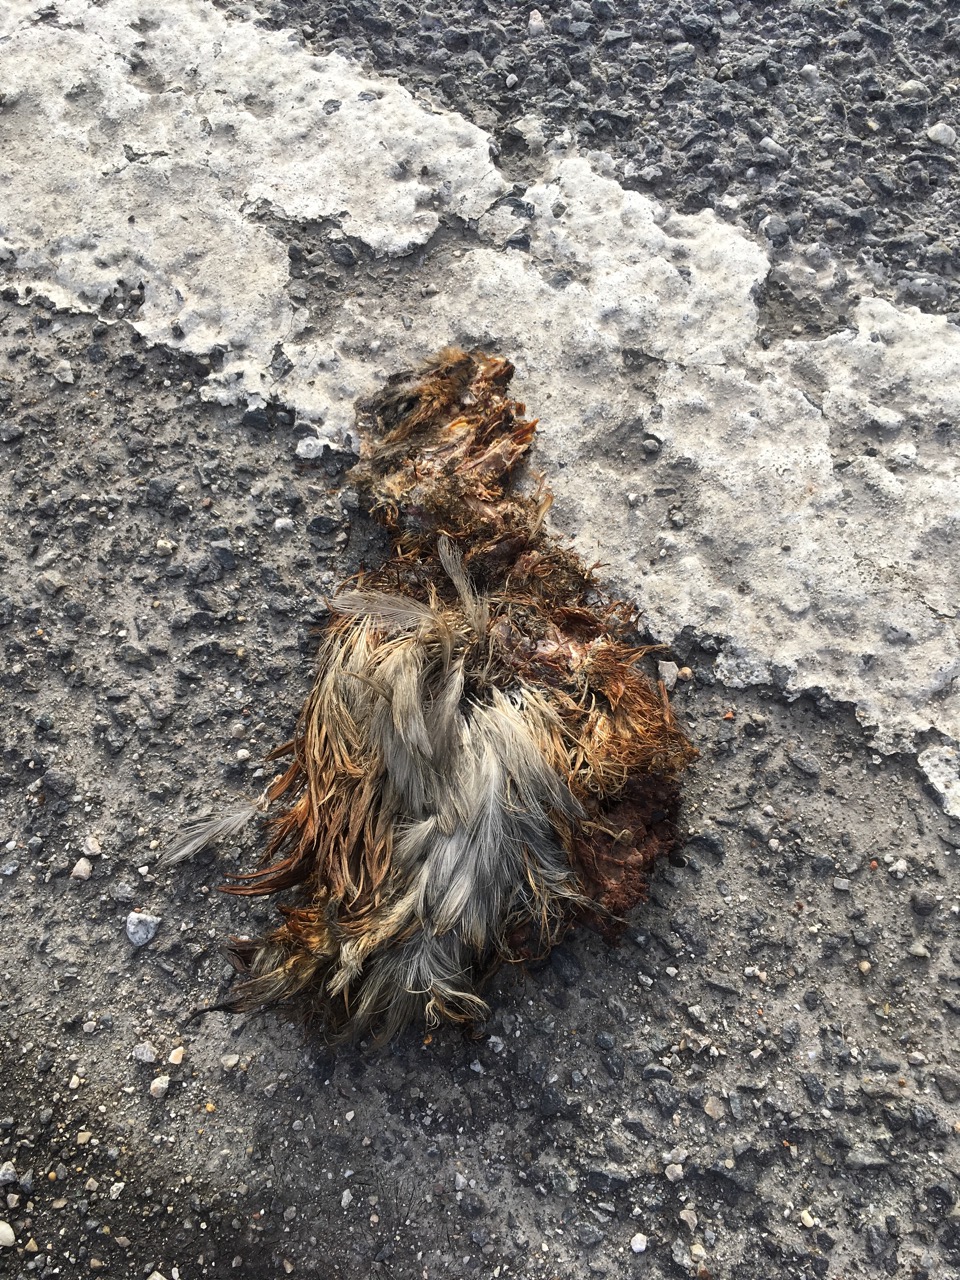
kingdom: Animalia
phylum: Chordata
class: Aves
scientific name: Aves
